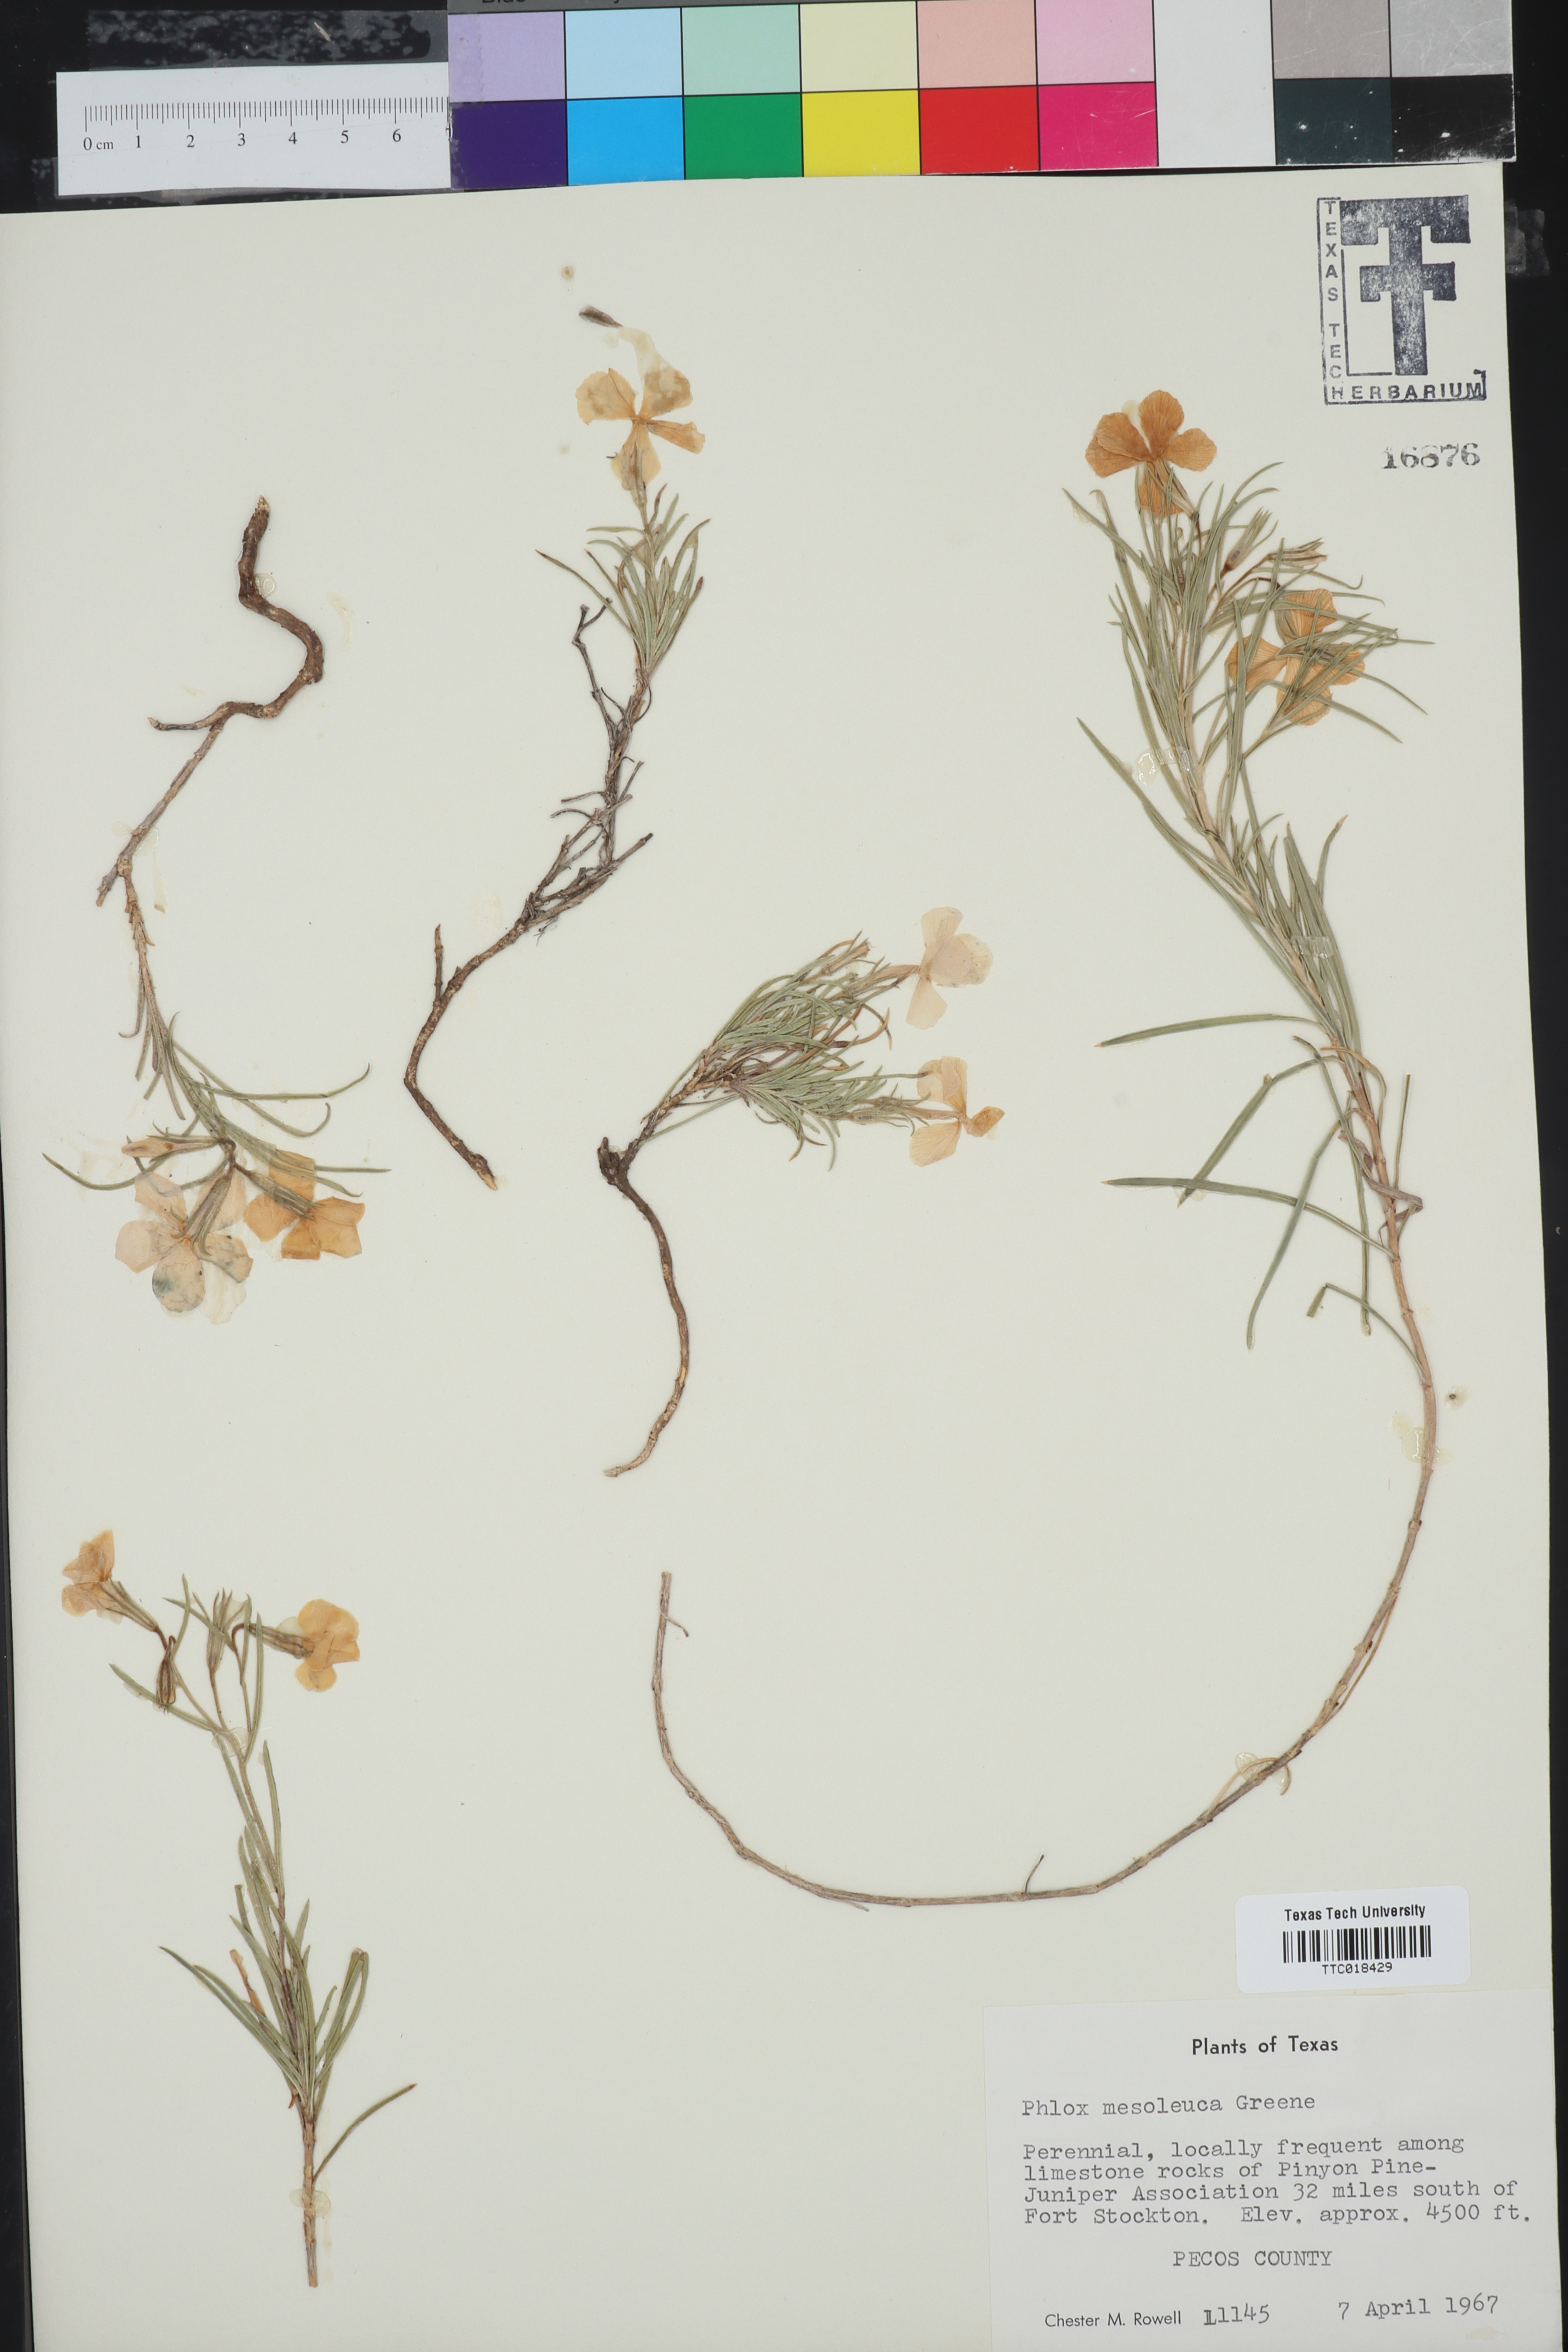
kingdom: Plantae
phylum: Tracheophyta
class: Magnoliopsida
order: Ericales
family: Polemoniaceae
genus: Phlox
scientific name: Phlox mesoleuca
